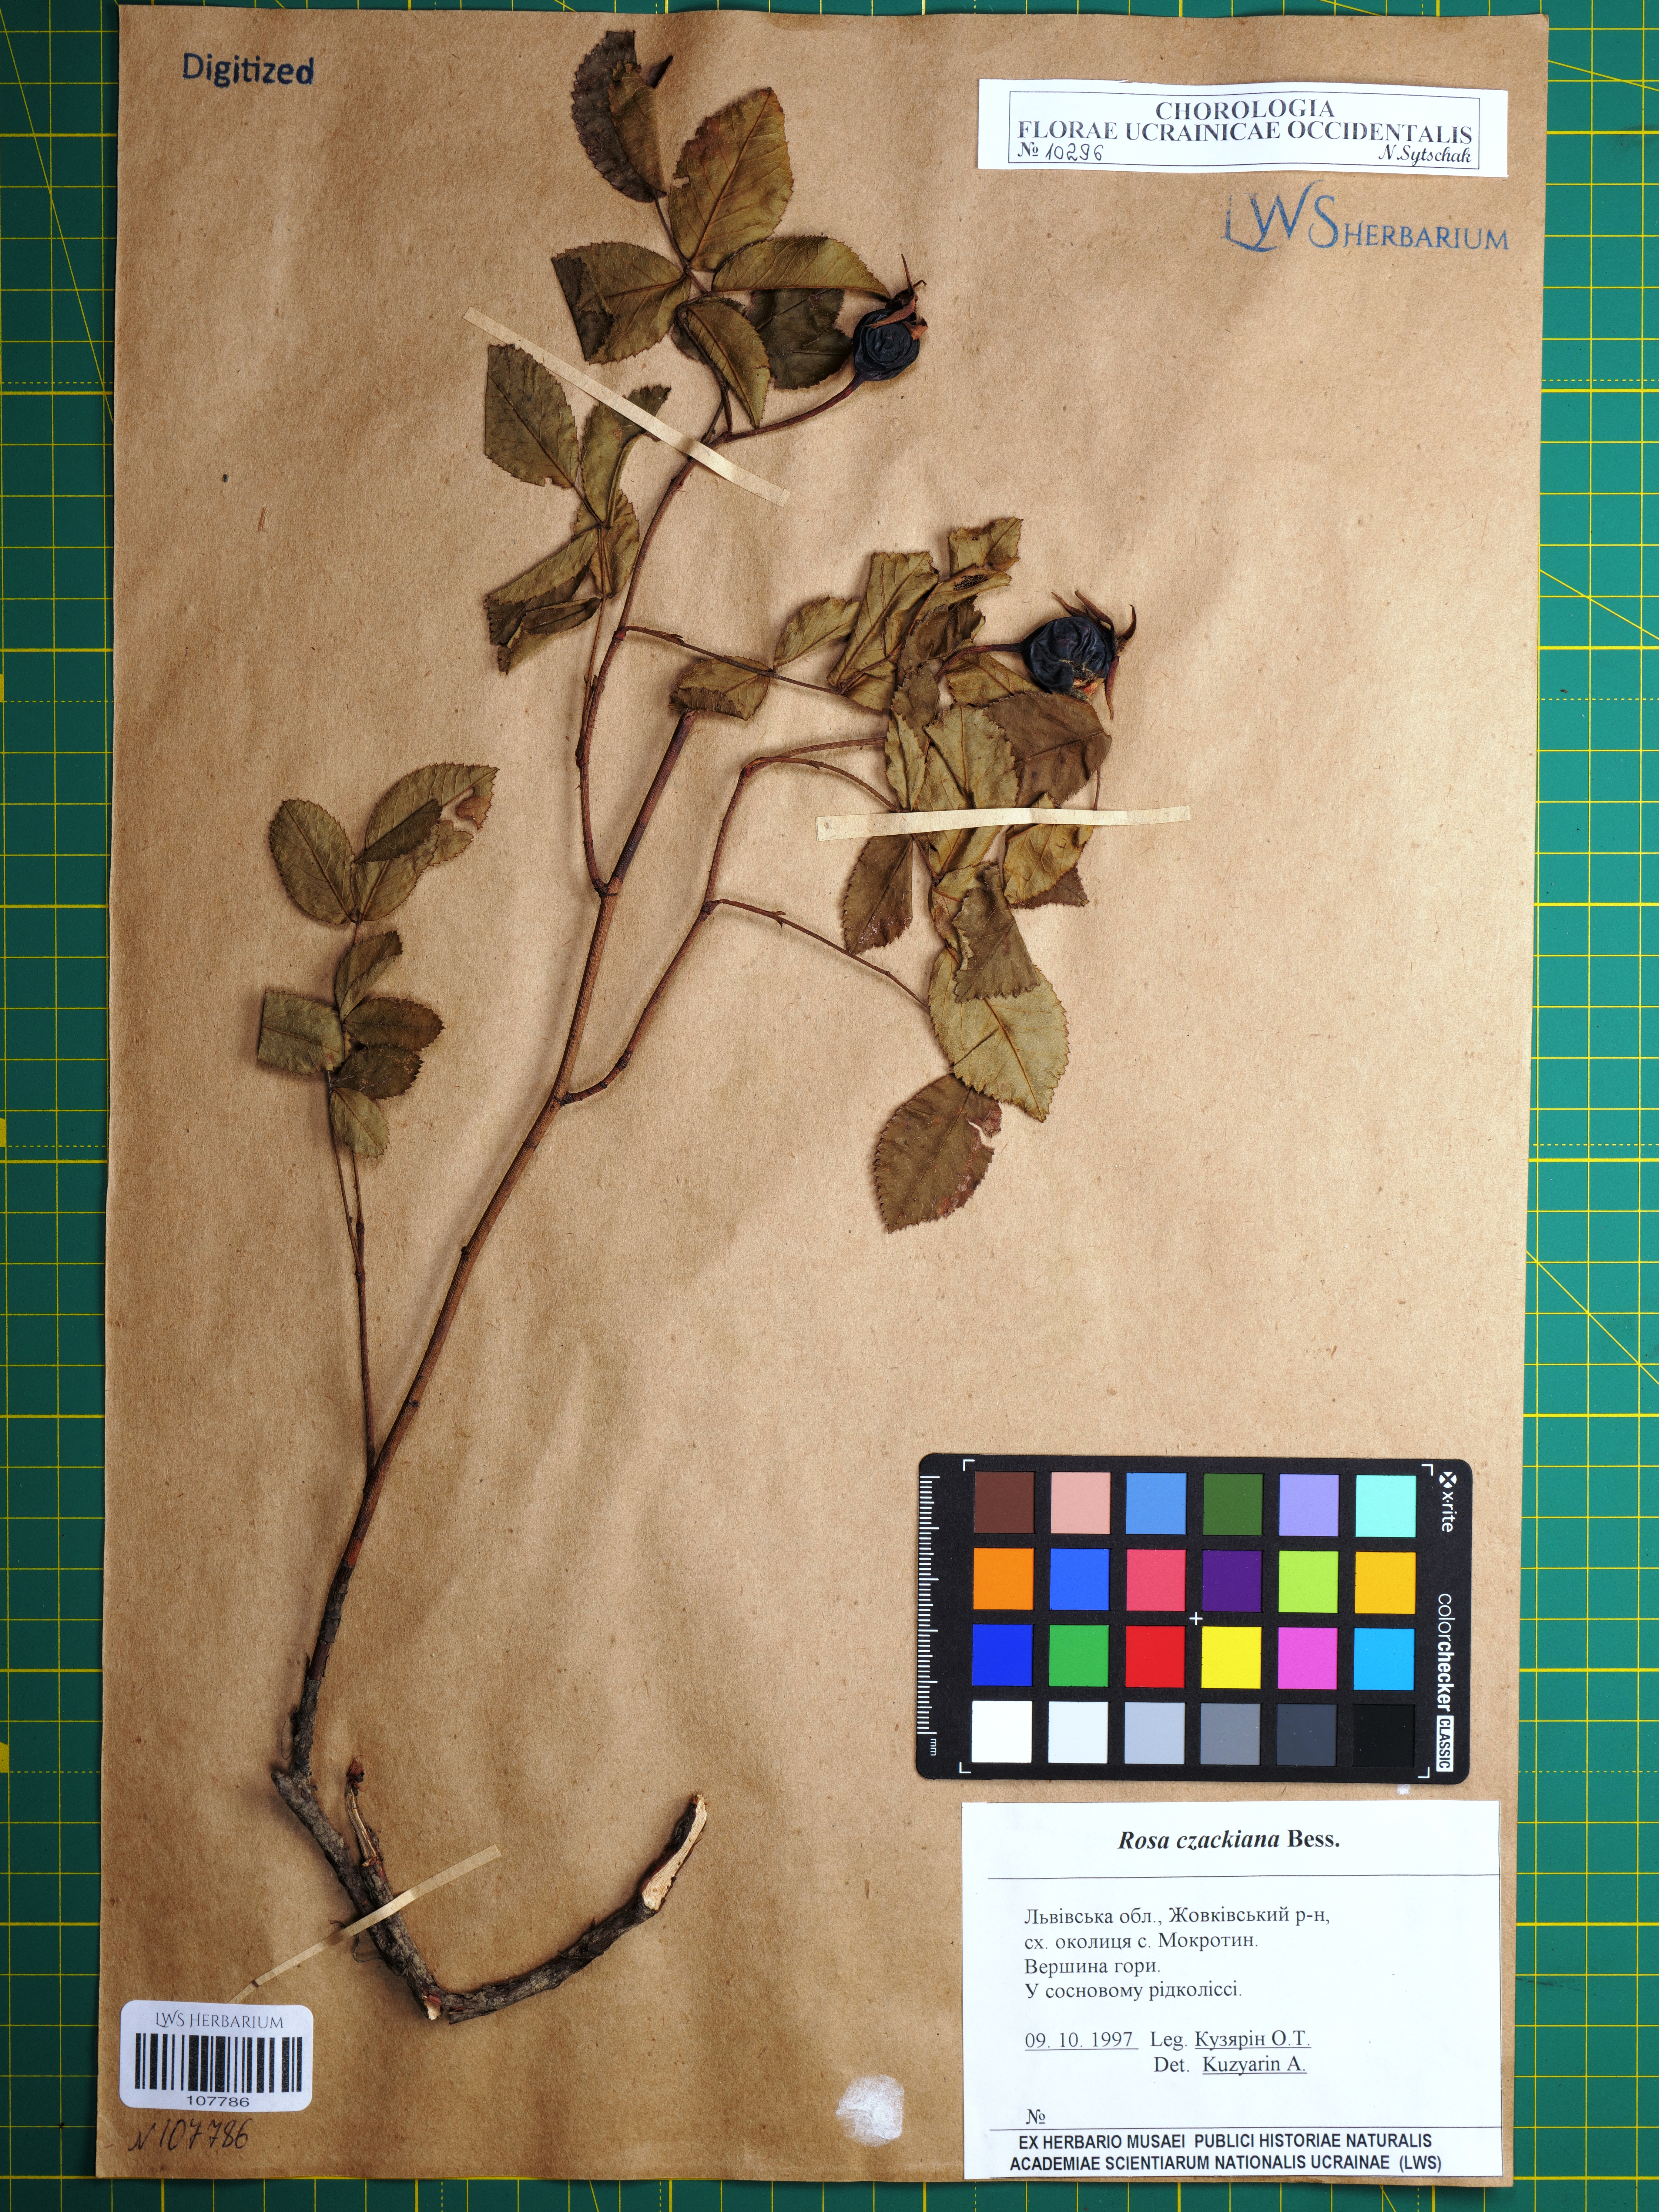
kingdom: Plantae
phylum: Tracheophyta
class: Magnoliopsida
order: Rosales
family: Rosaceae
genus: Rosa
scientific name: Rosa gallica
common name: French rose
